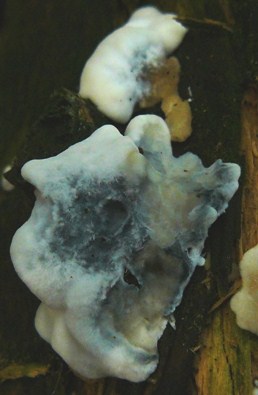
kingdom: Fungi
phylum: Basidiomycota
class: Agaricomycetes
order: Polyporales
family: Polyporaceae
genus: Cyanosporus
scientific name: Cyanosporus caesius
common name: blålig kødporesvamp
